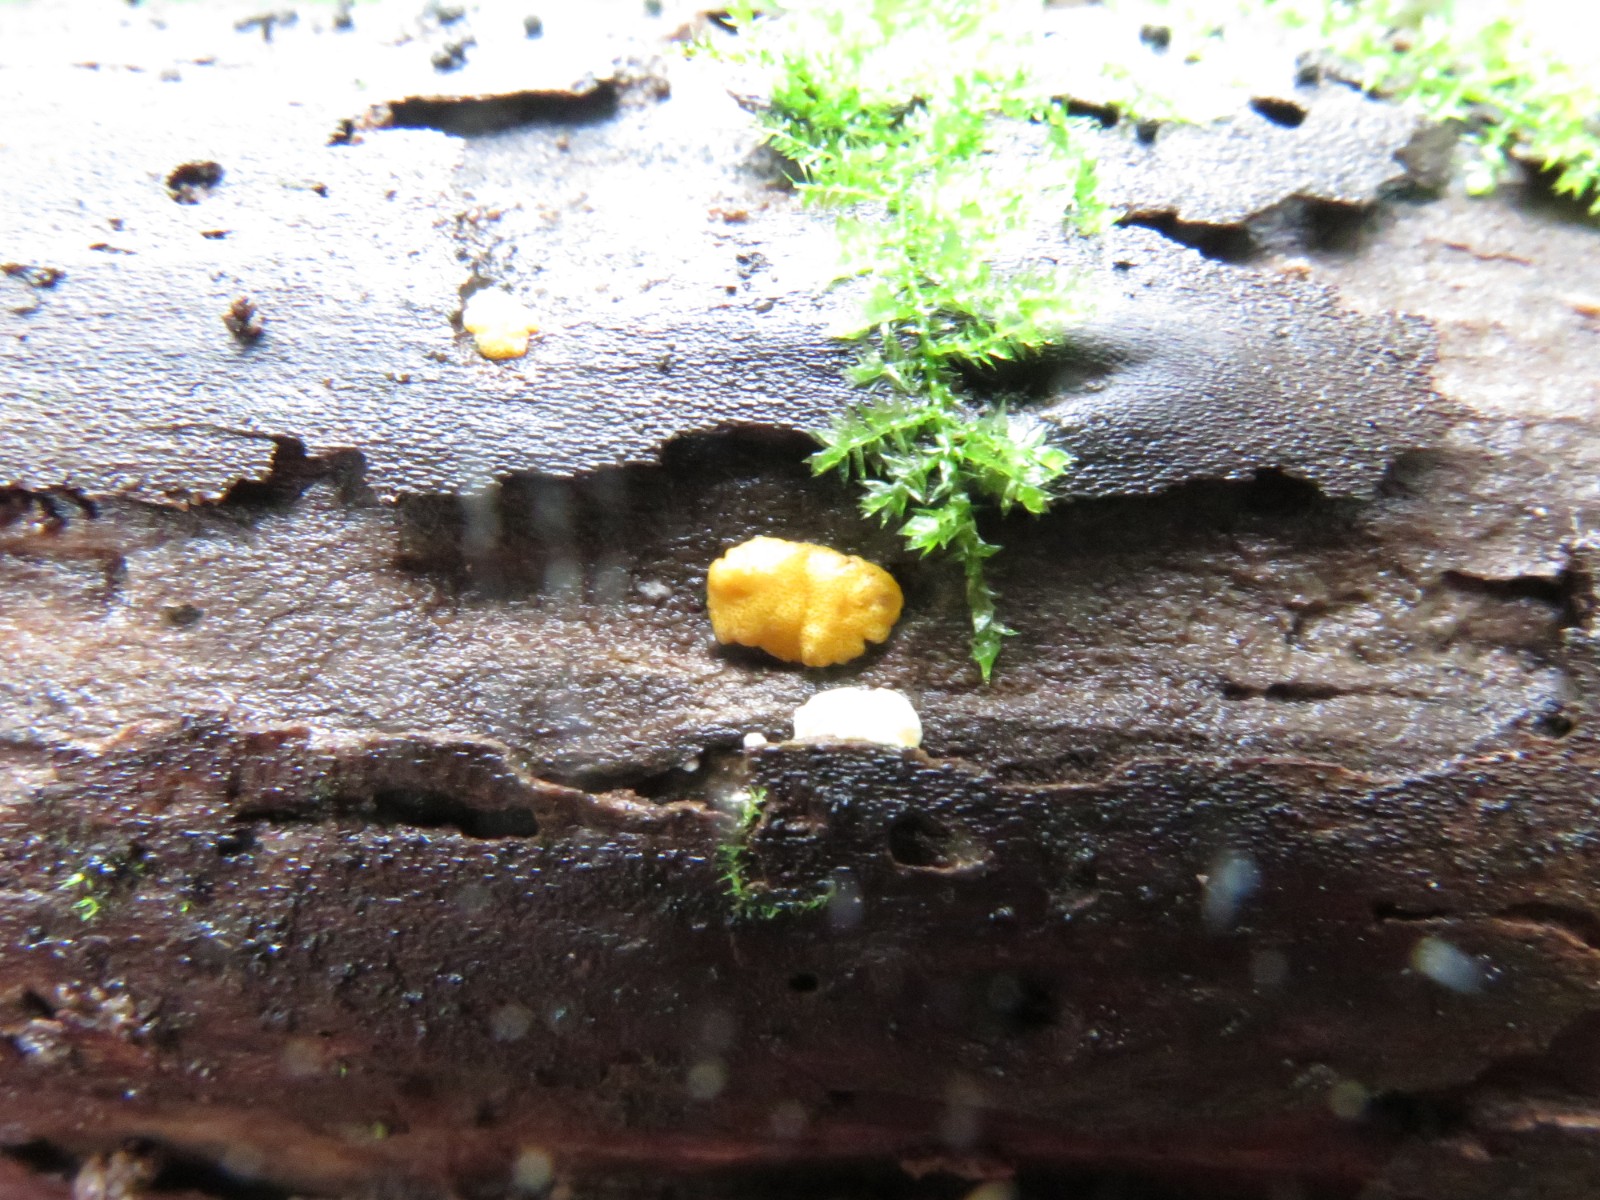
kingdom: Fungi
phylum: Ascomycota
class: Sordariomycetes
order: Hypocreales
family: Hypocreaceae
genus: Trichoderma
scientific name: Trichoderma aureoviride
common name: æggegul kødkerne
